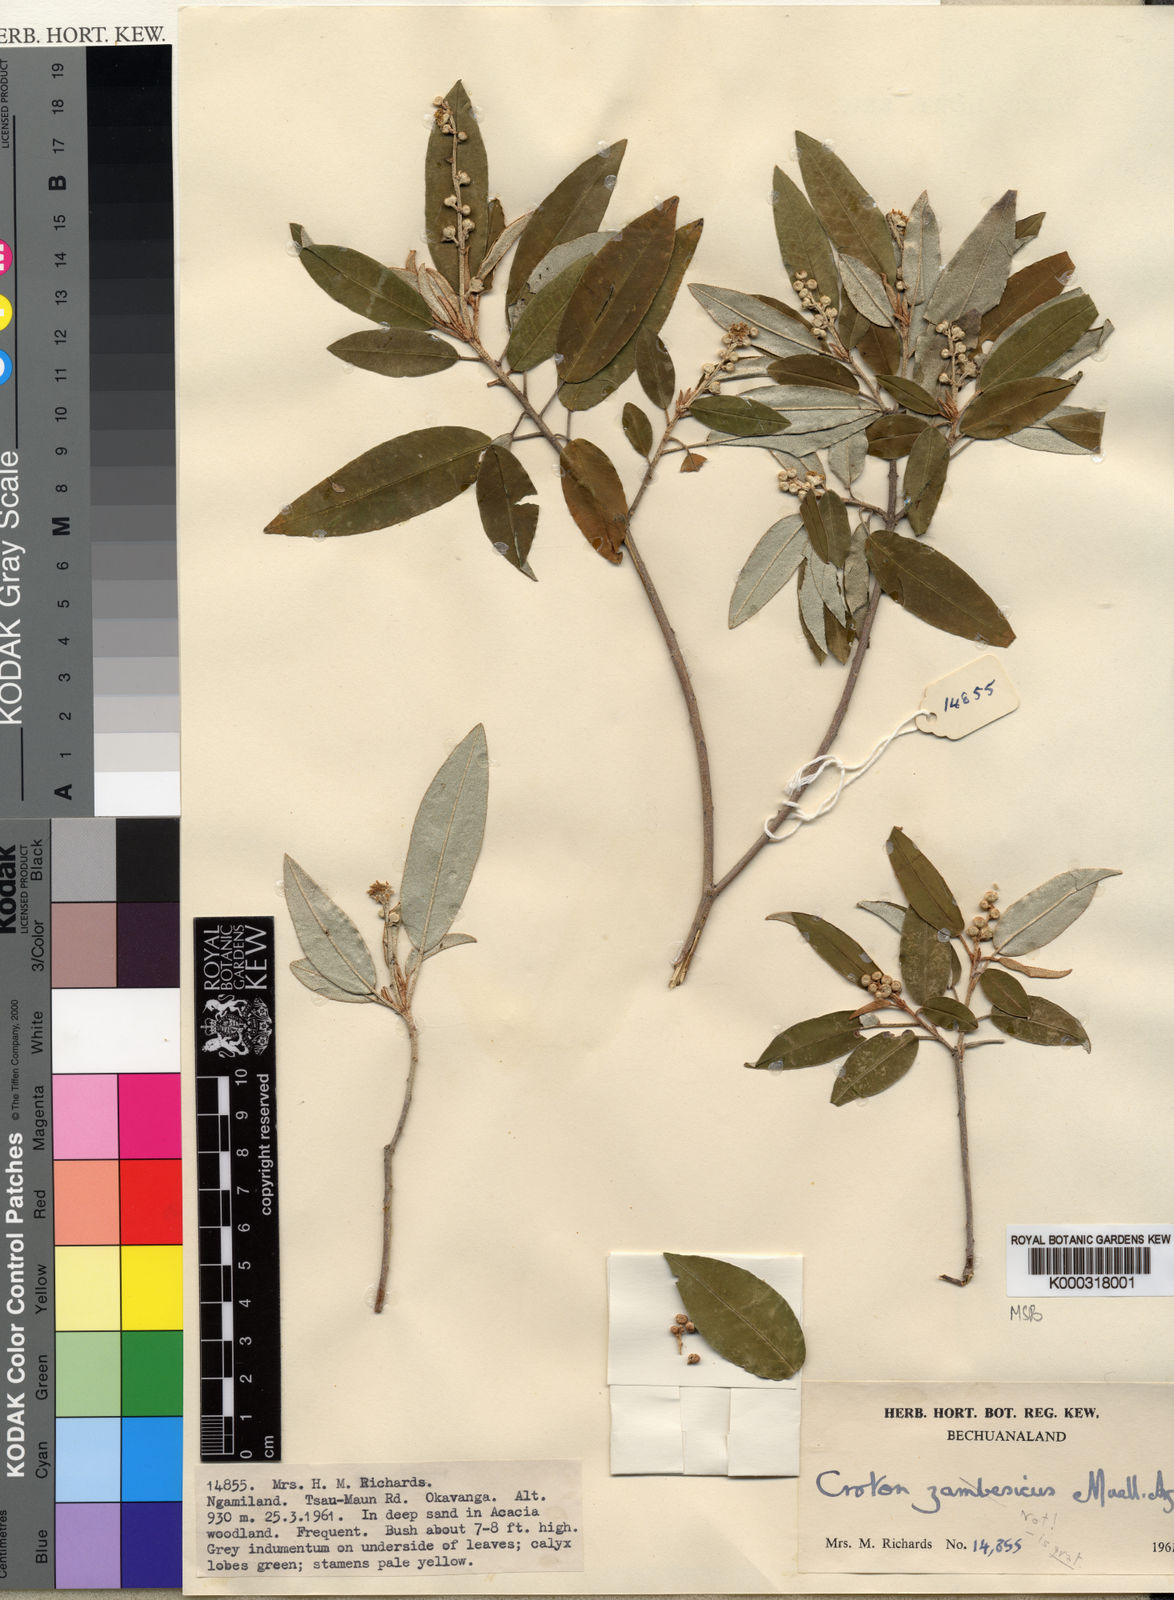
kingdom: Plantae
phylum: Tracheophyta
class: Magnoliopsida
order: Malpighiales
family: Euphorbiaceae
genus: Croton
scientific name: Croton gratissimus
